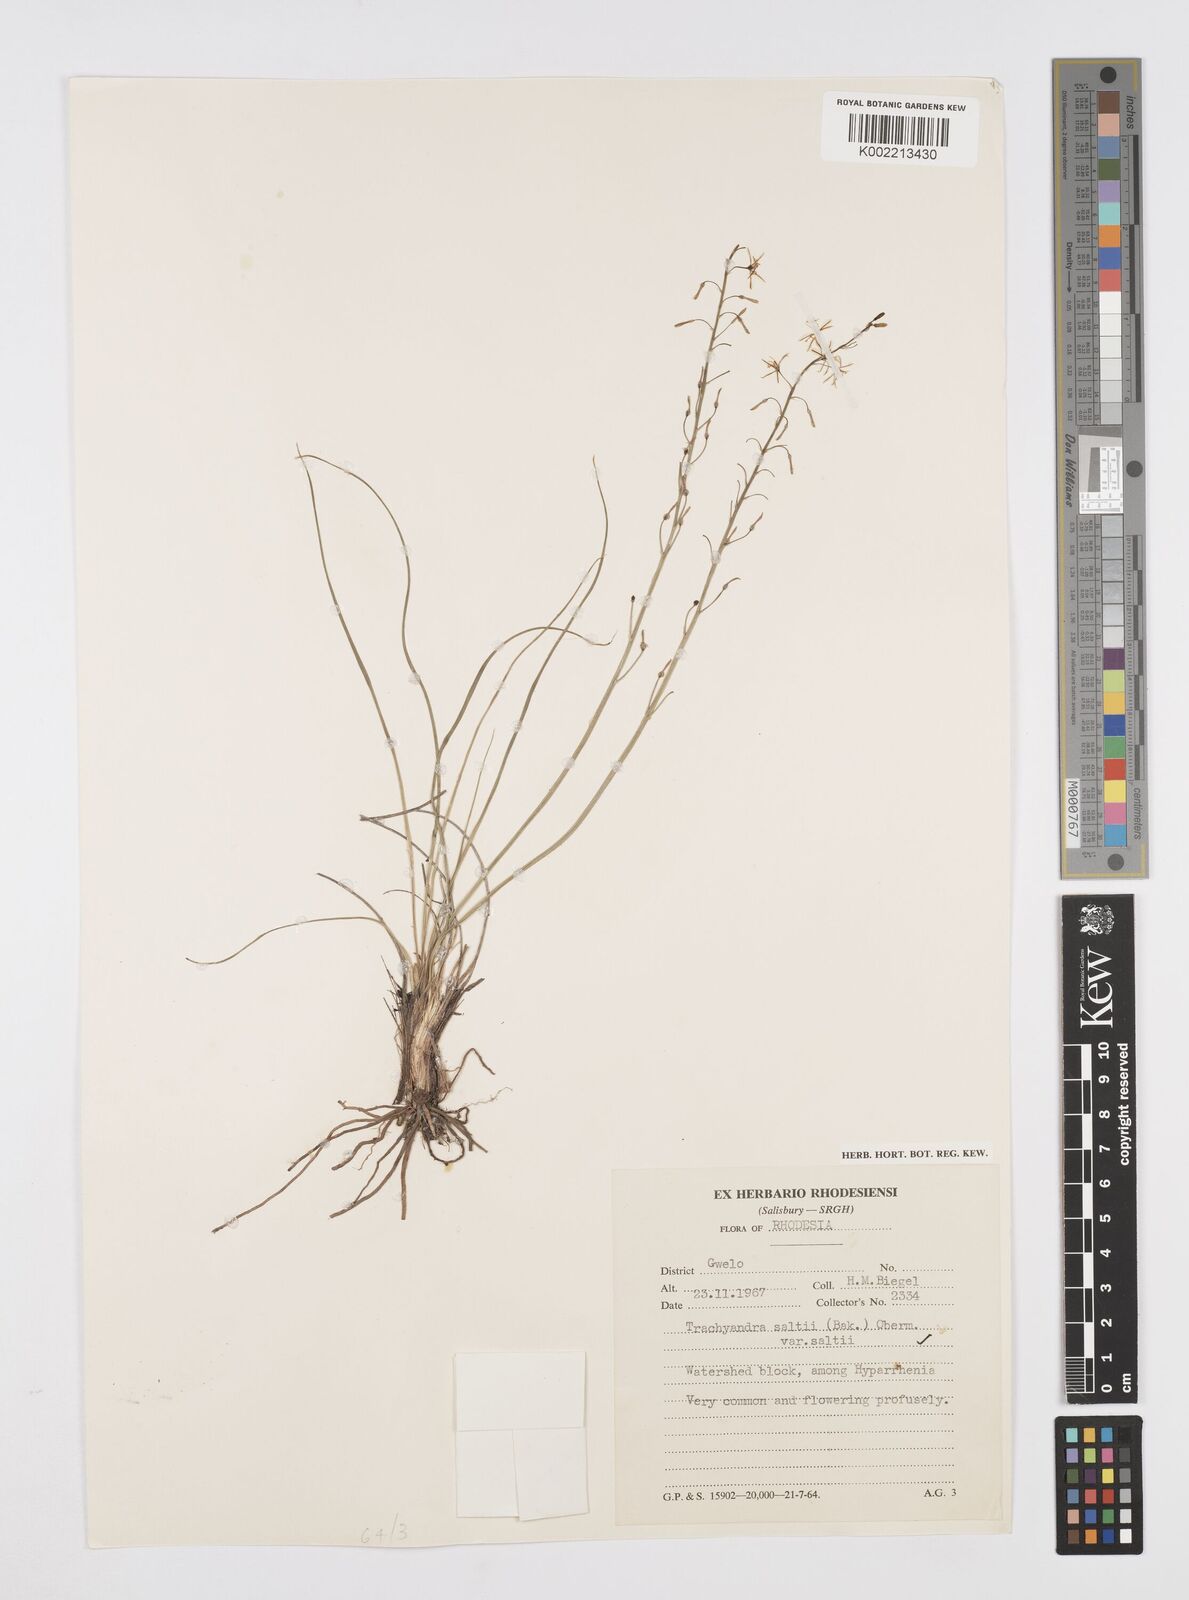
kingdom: Plantae
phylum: Tracheophyta
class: Liliopsida
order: Asparagales
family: Asphodelaceae
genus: Trachyandra
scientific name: Trachyandra saltii
